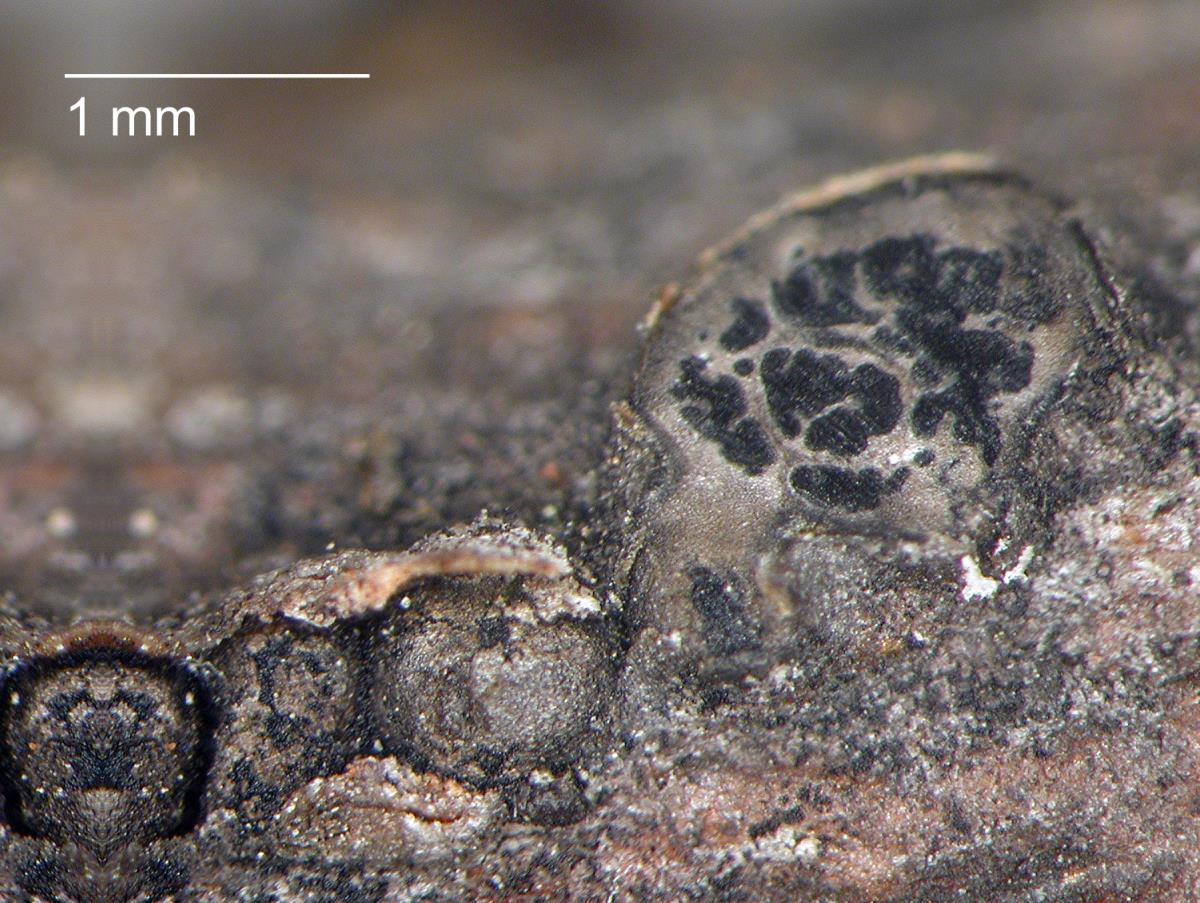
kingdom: Fungi
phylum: Ascomycota
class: Dothideomycetes
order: Botryosphaeriales
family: Aplosporellaceae
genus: Aplosporella
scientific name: Aplosporella sophorae
